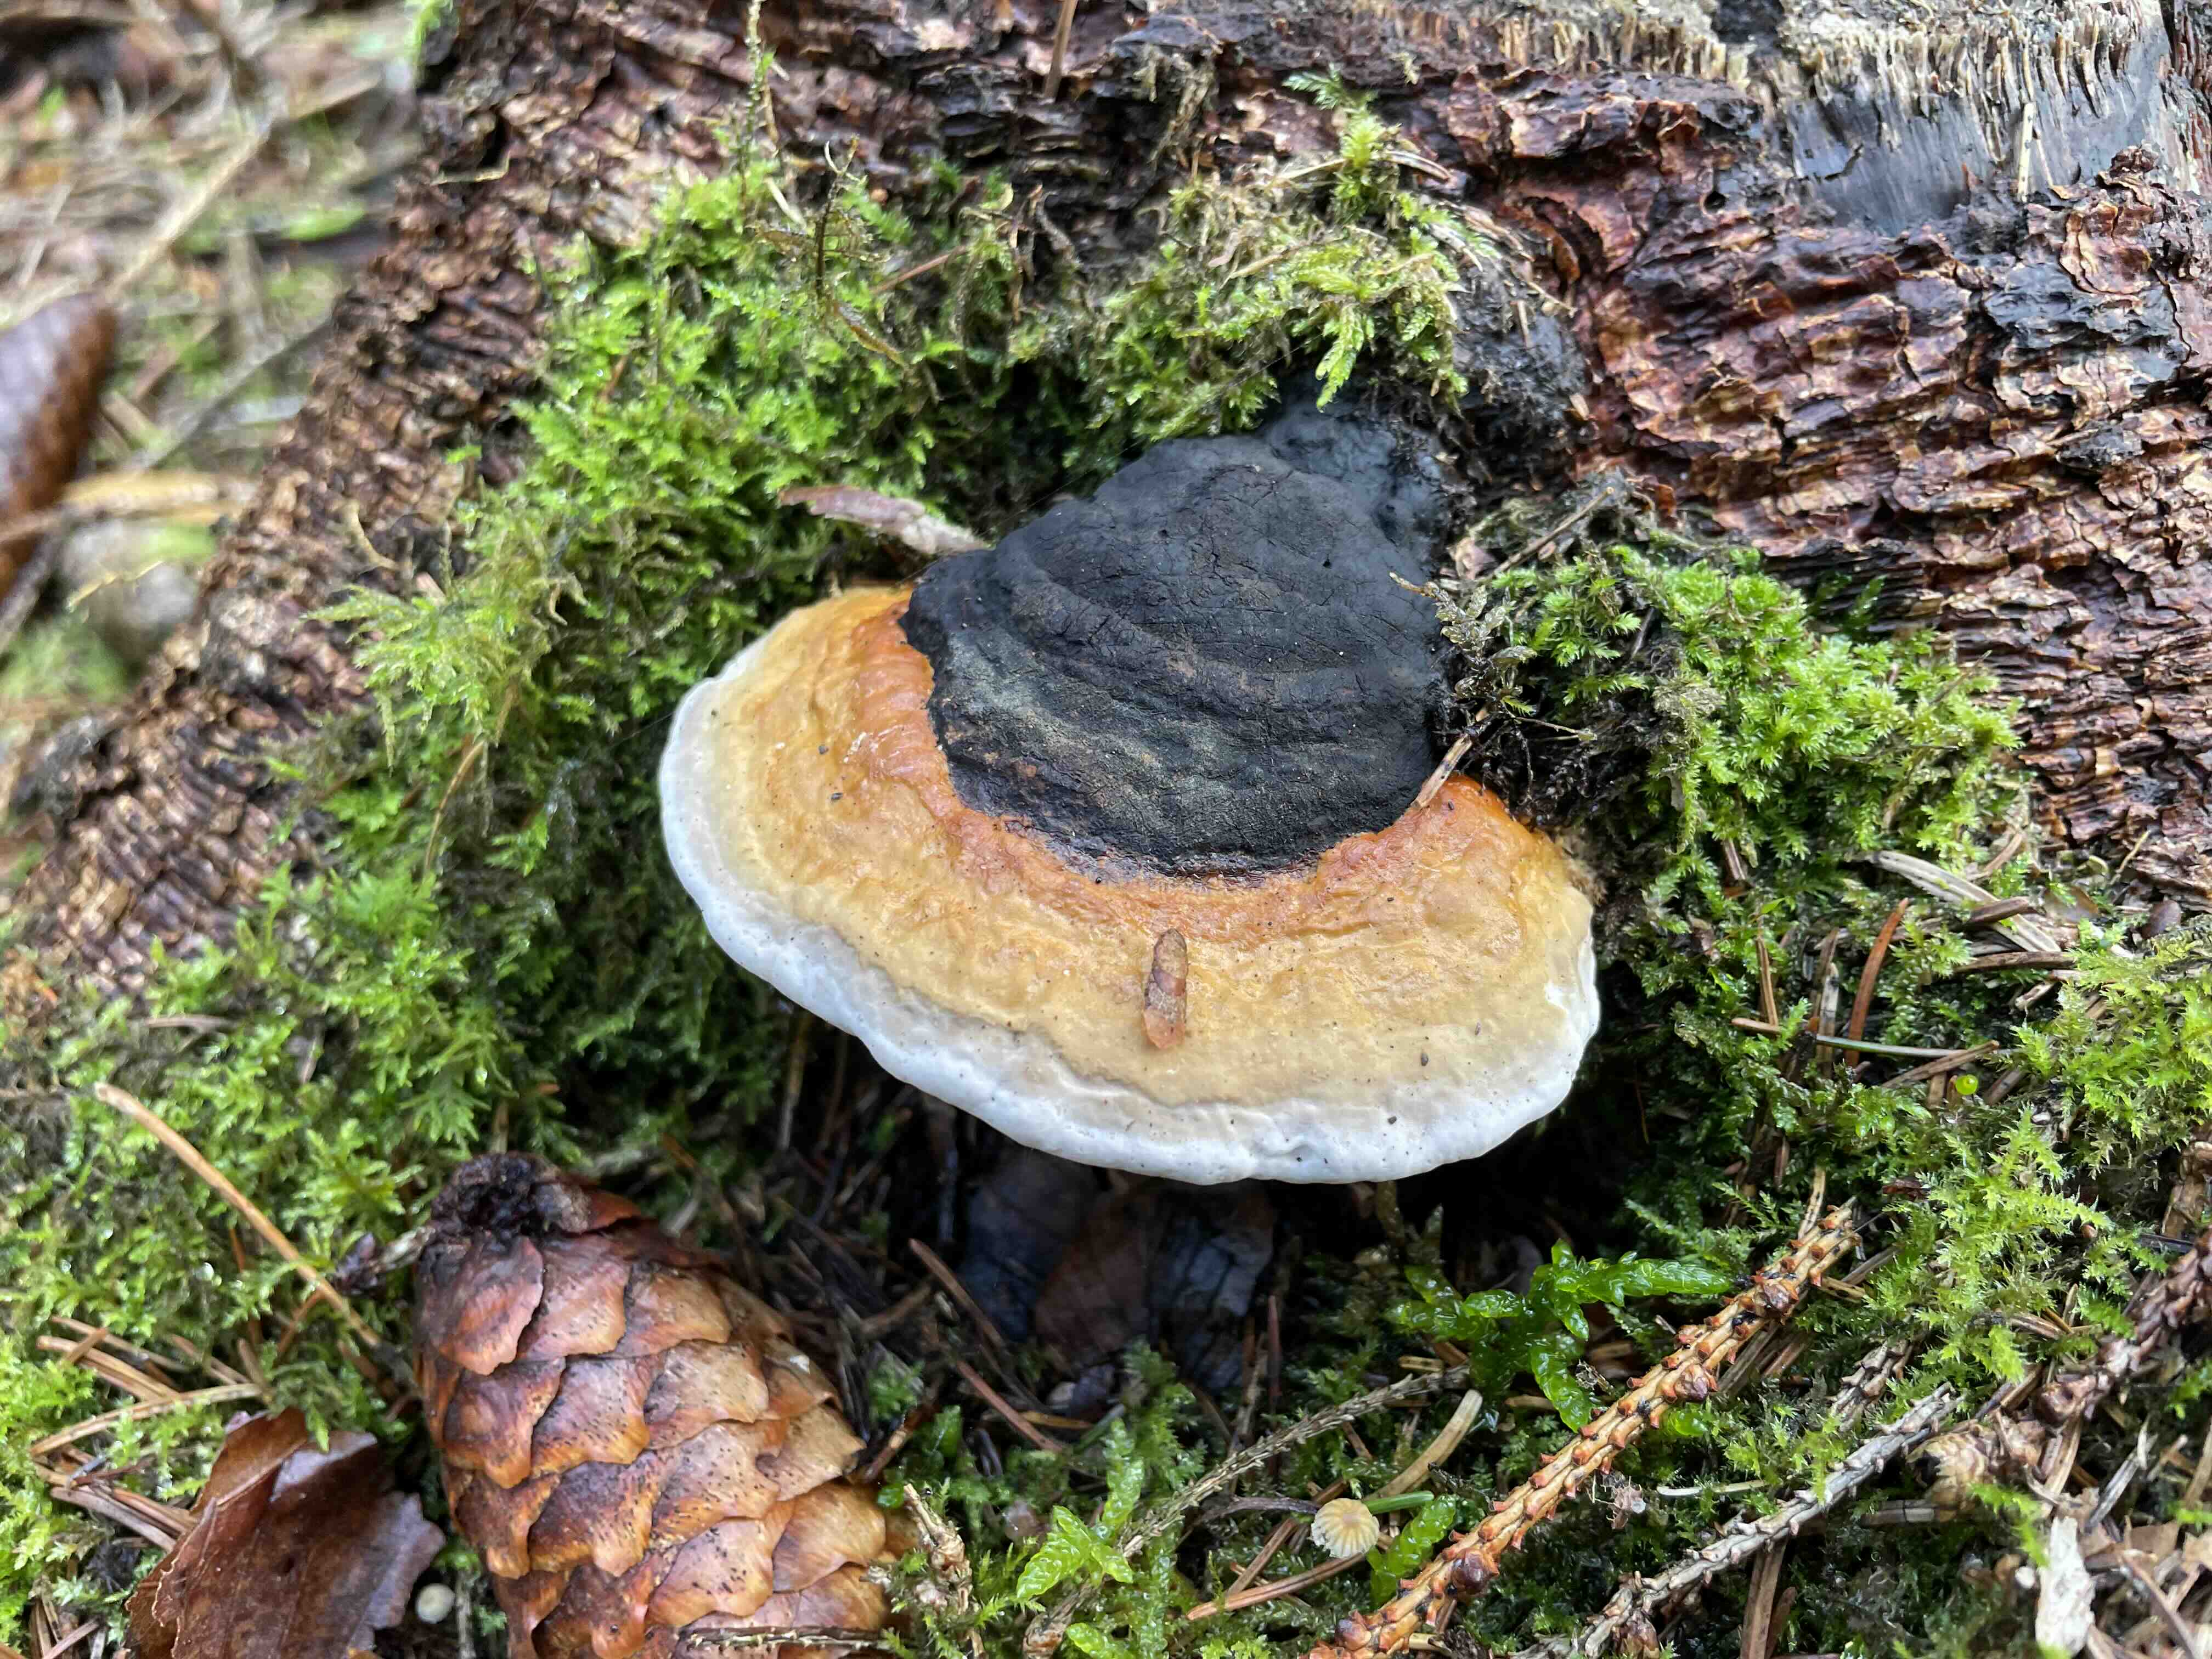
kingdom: Fungi
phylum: Basidiomycota
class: Agaricomycetes
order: Polyporales
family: Fomitopsidaceae
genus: Fomitopsis
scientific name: Fomitopsis pinicola
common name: randbæltet hovporesvamp
